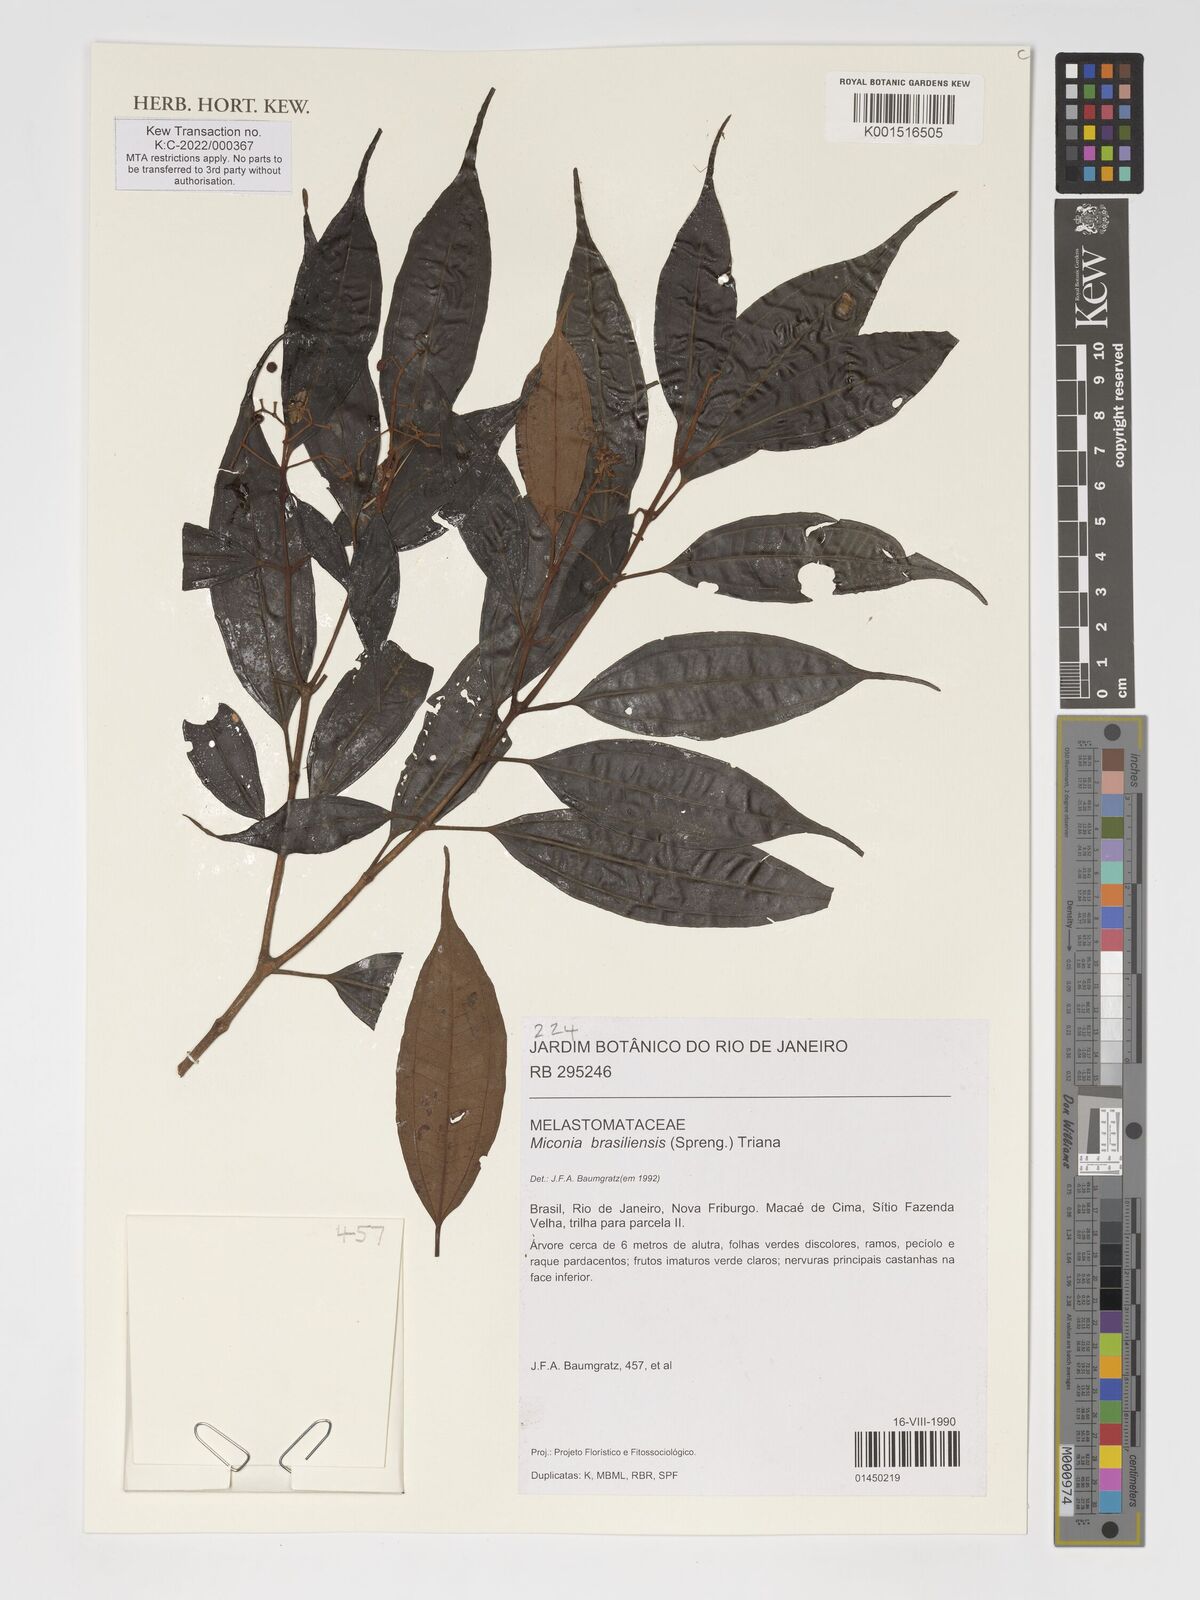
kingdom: Plantae
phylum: Tracheophyta
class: Magnoliopsida
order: Myrtales
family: Melastomataceae
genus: Miconia
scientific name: Miconia brasiliensis
